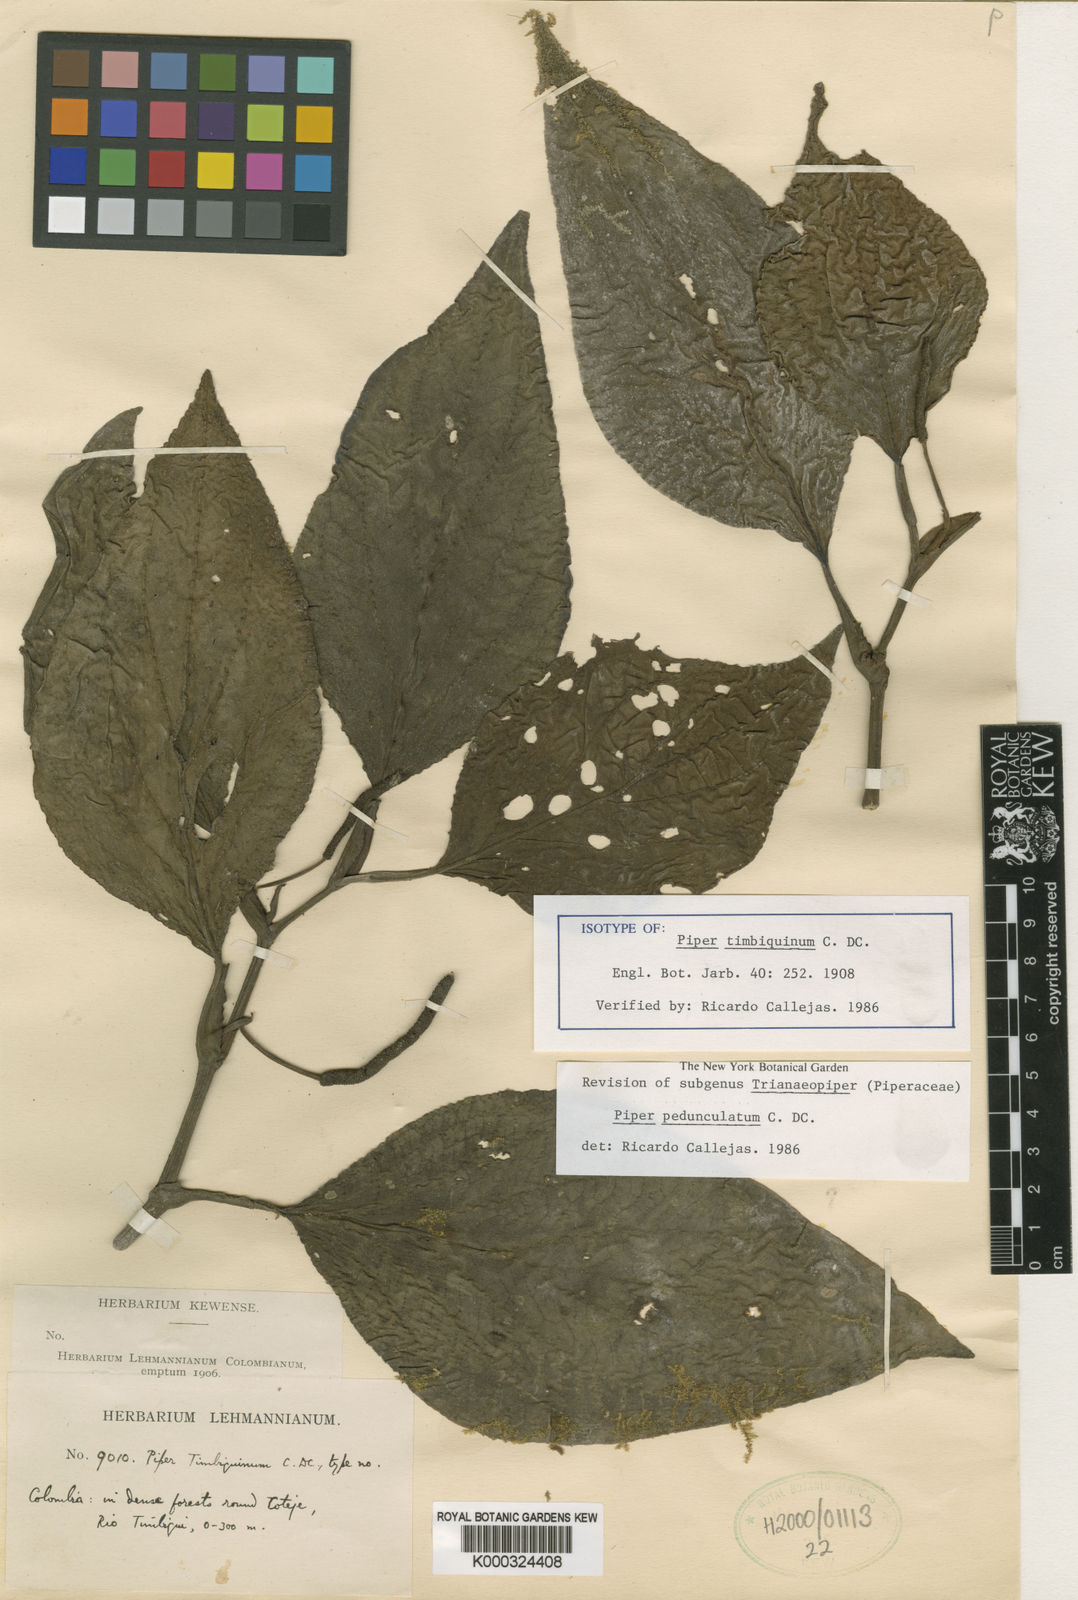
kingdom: Plantae
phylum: Tracheophyta
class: Magnoliopsida
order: Piperales
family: Piperaceae
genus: Piper
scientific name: Piper pedunculatum
